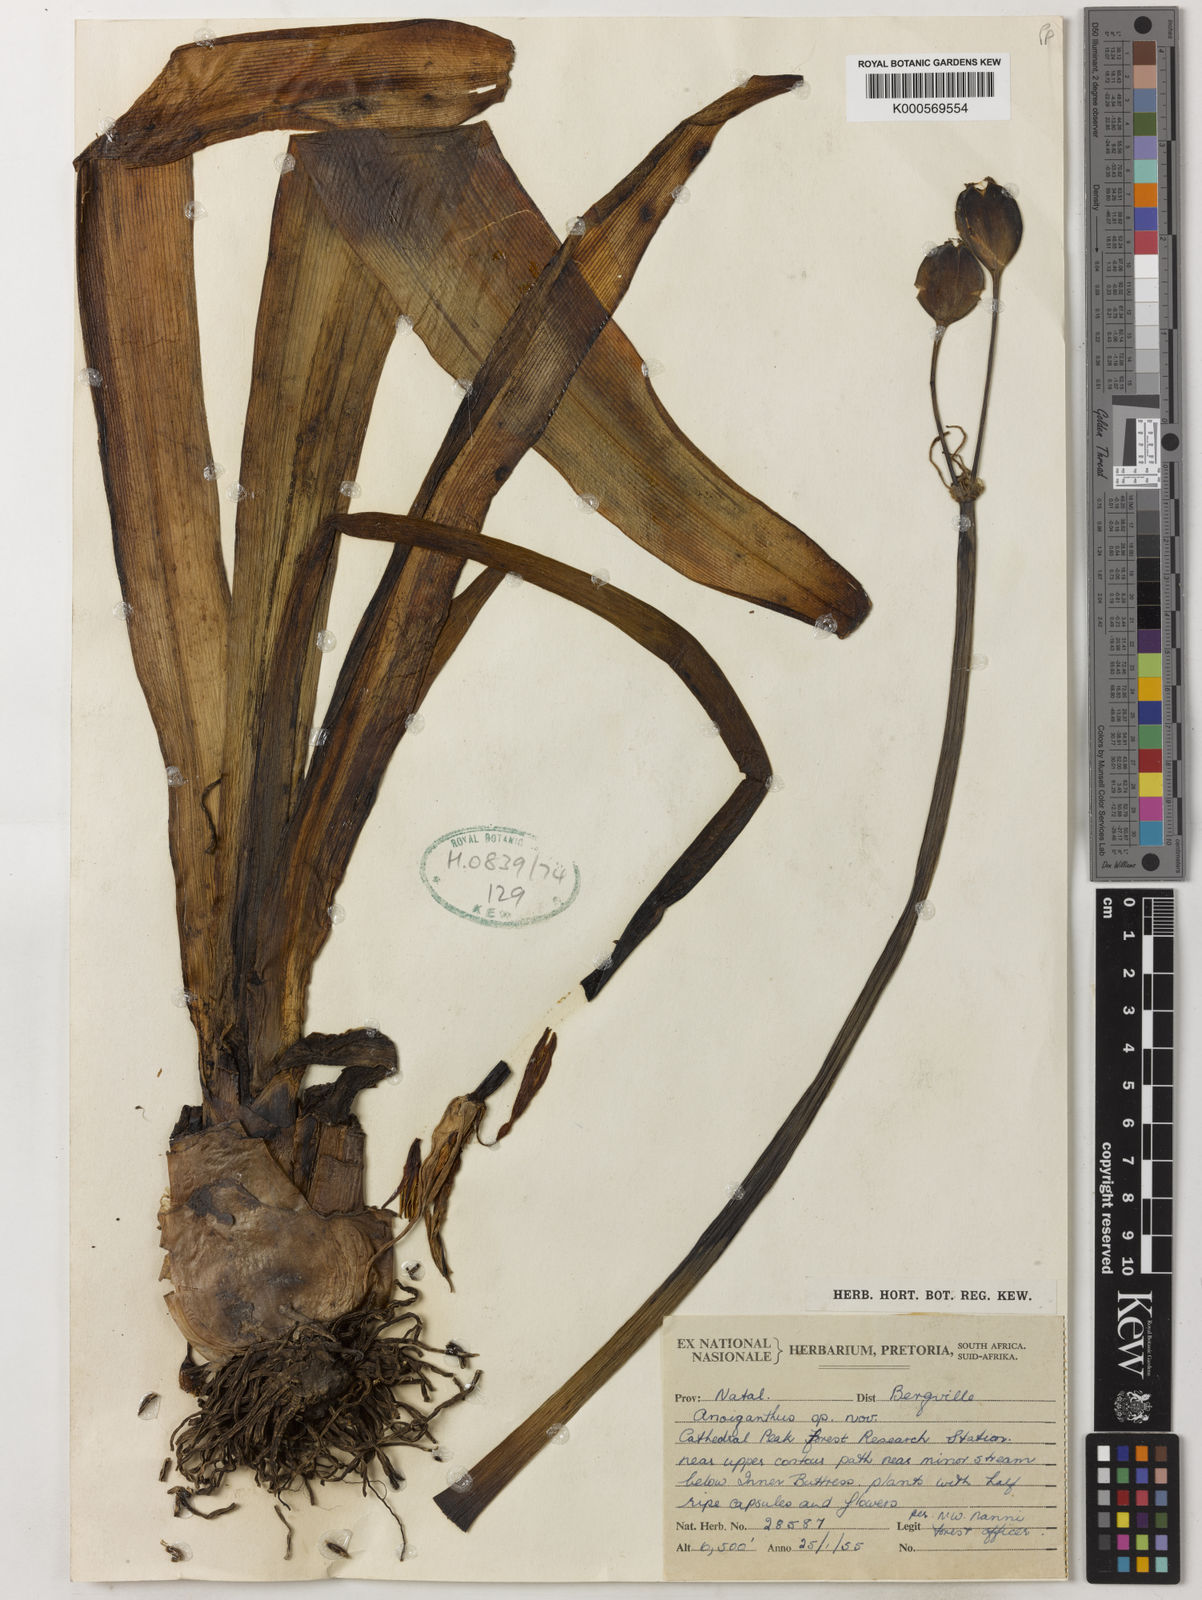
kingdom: Plantae
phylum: Tracheophyta
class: Liliopsida
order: Asparagales
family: Amaryllidaceae
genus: Cyrtanthus
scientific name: Cyrtanthus erubescens
